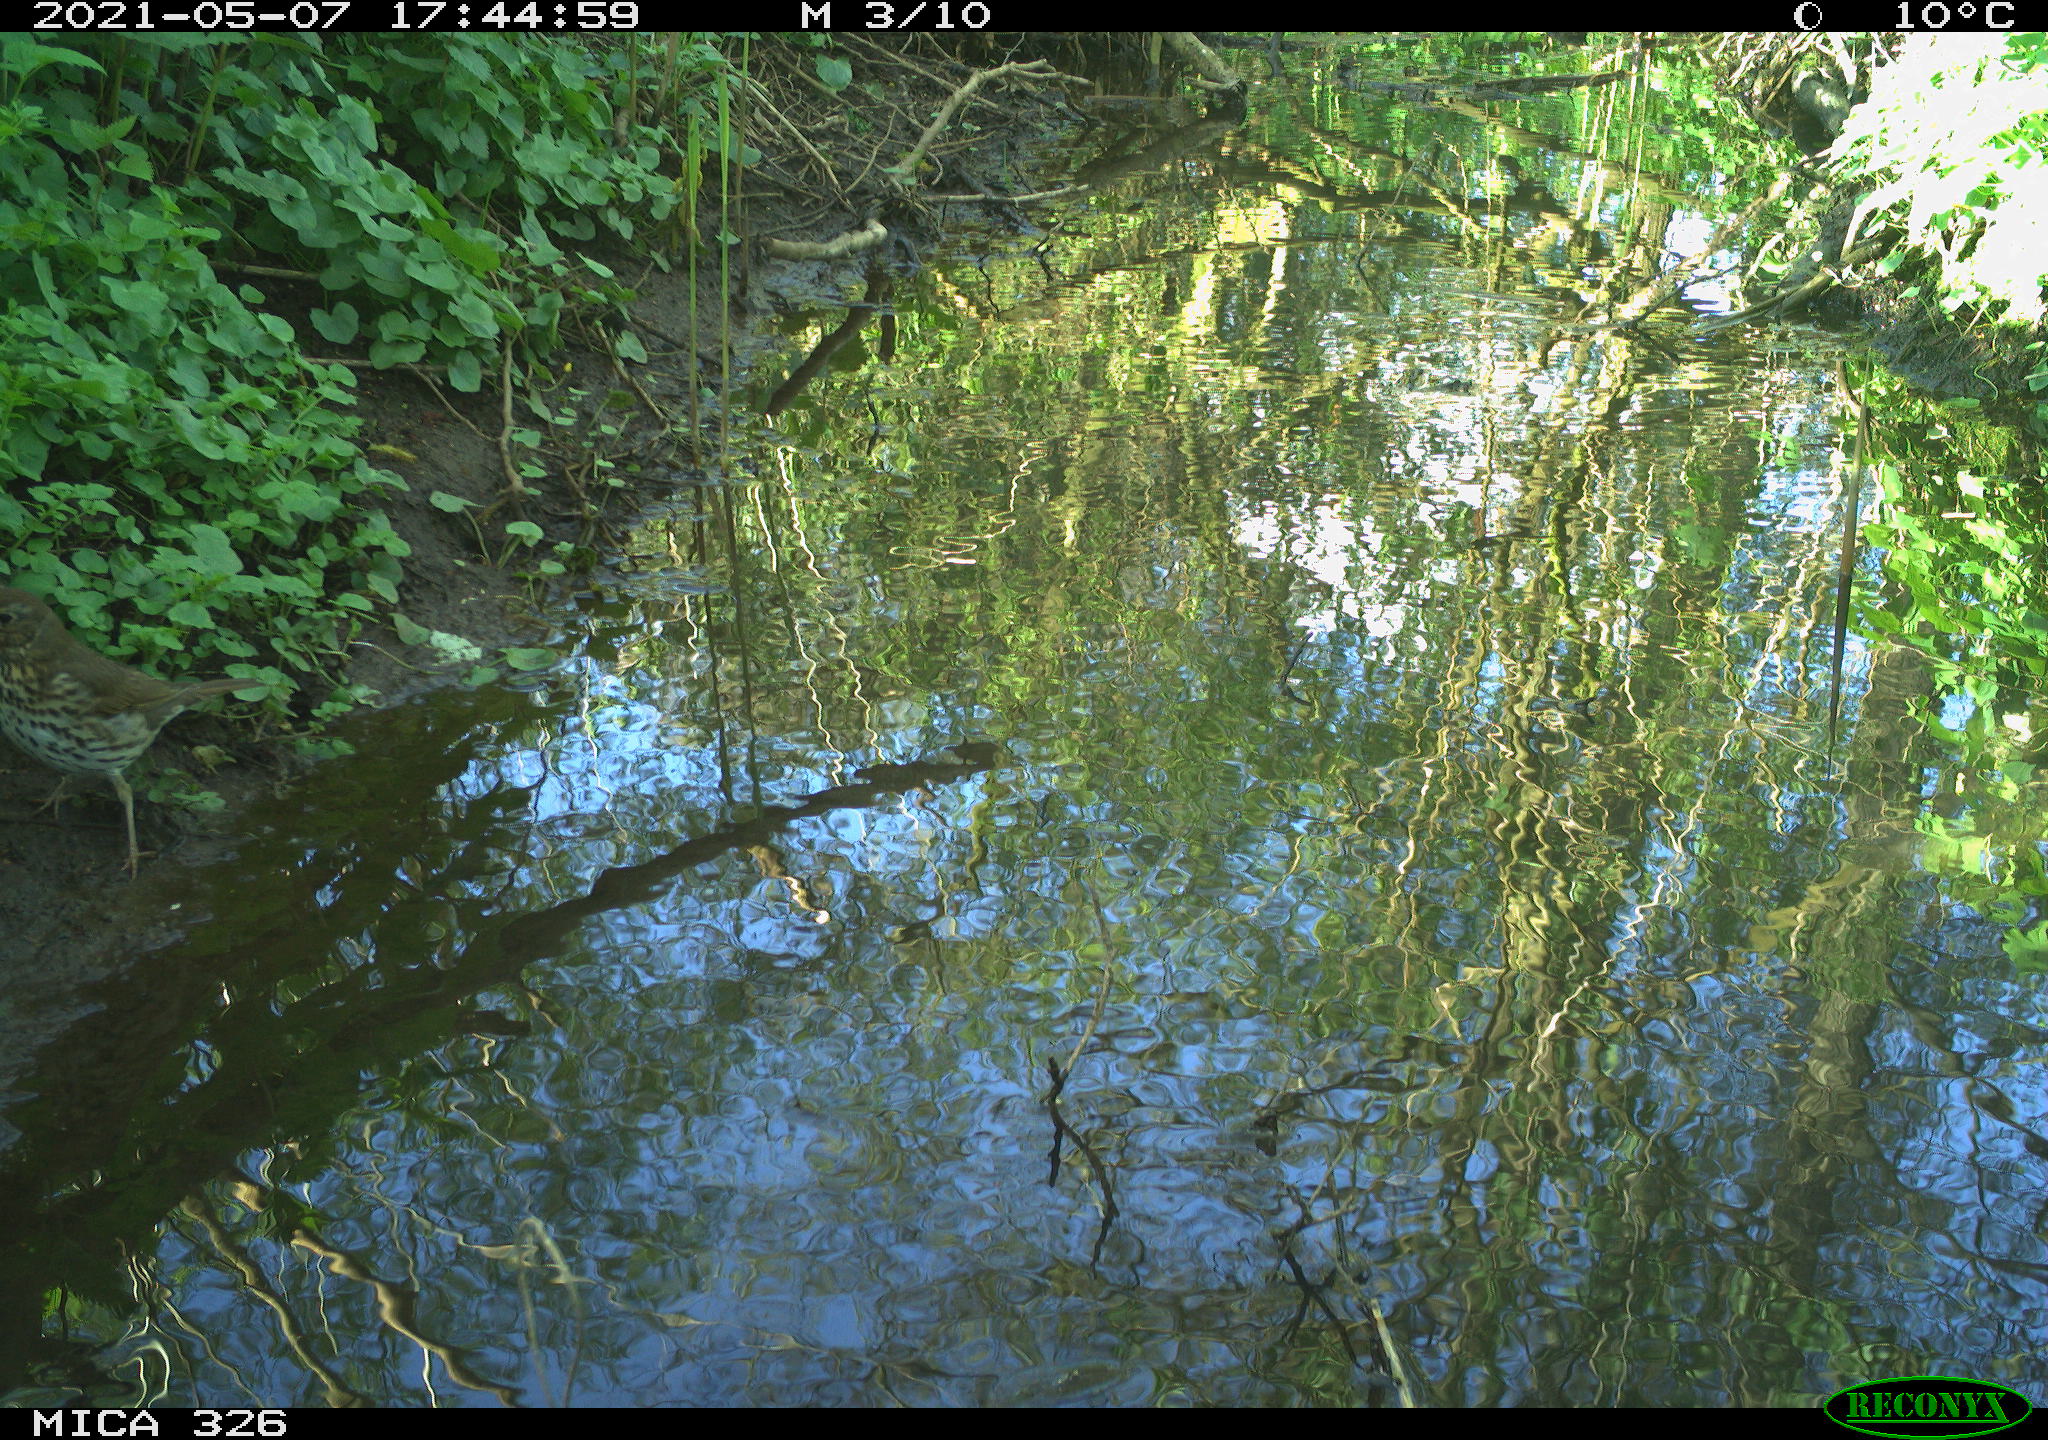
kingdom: Animalia
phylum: Chordata
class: Aves
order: Passeriformes
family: Turdidae
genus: Turdus
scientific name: Turdus philomelos
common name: Song thrush
